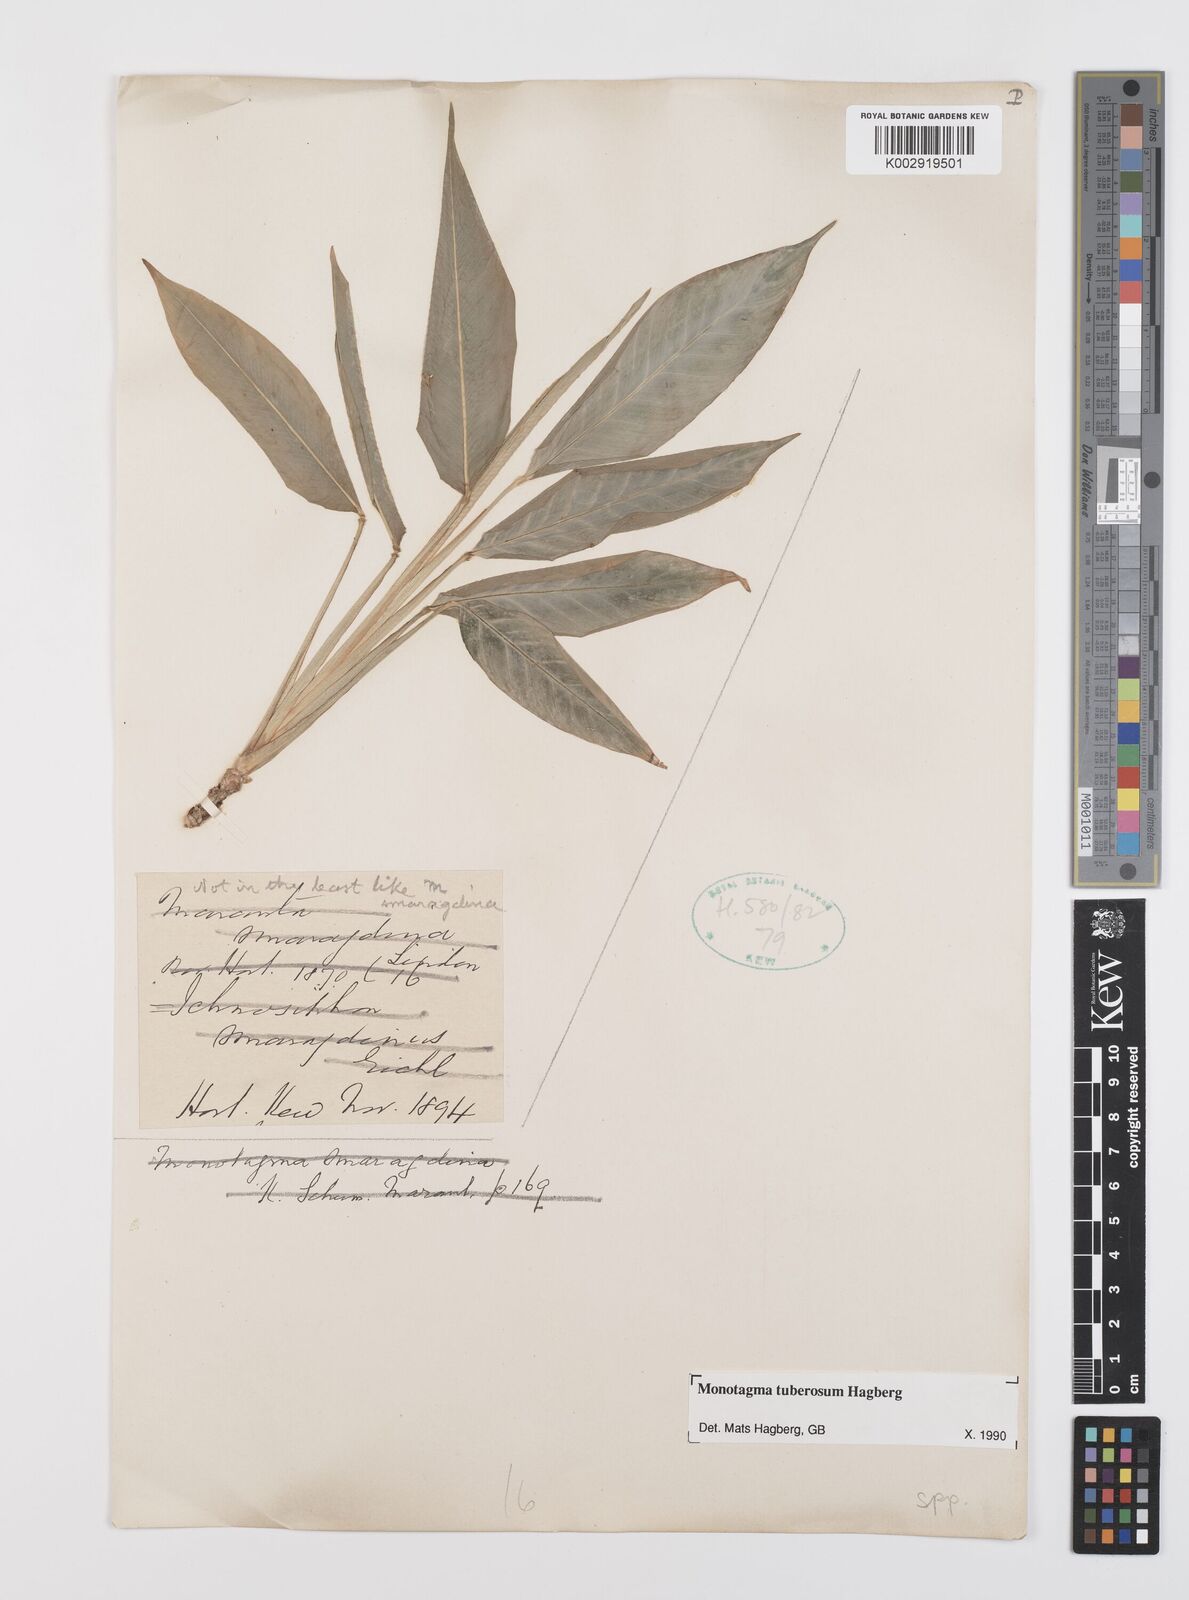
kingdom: Plantae
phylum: Tracheophyta
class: Liliopsida
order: Zingiberales
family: Marantaceae
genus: Monotagma
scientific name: Monotagma tuberosum
